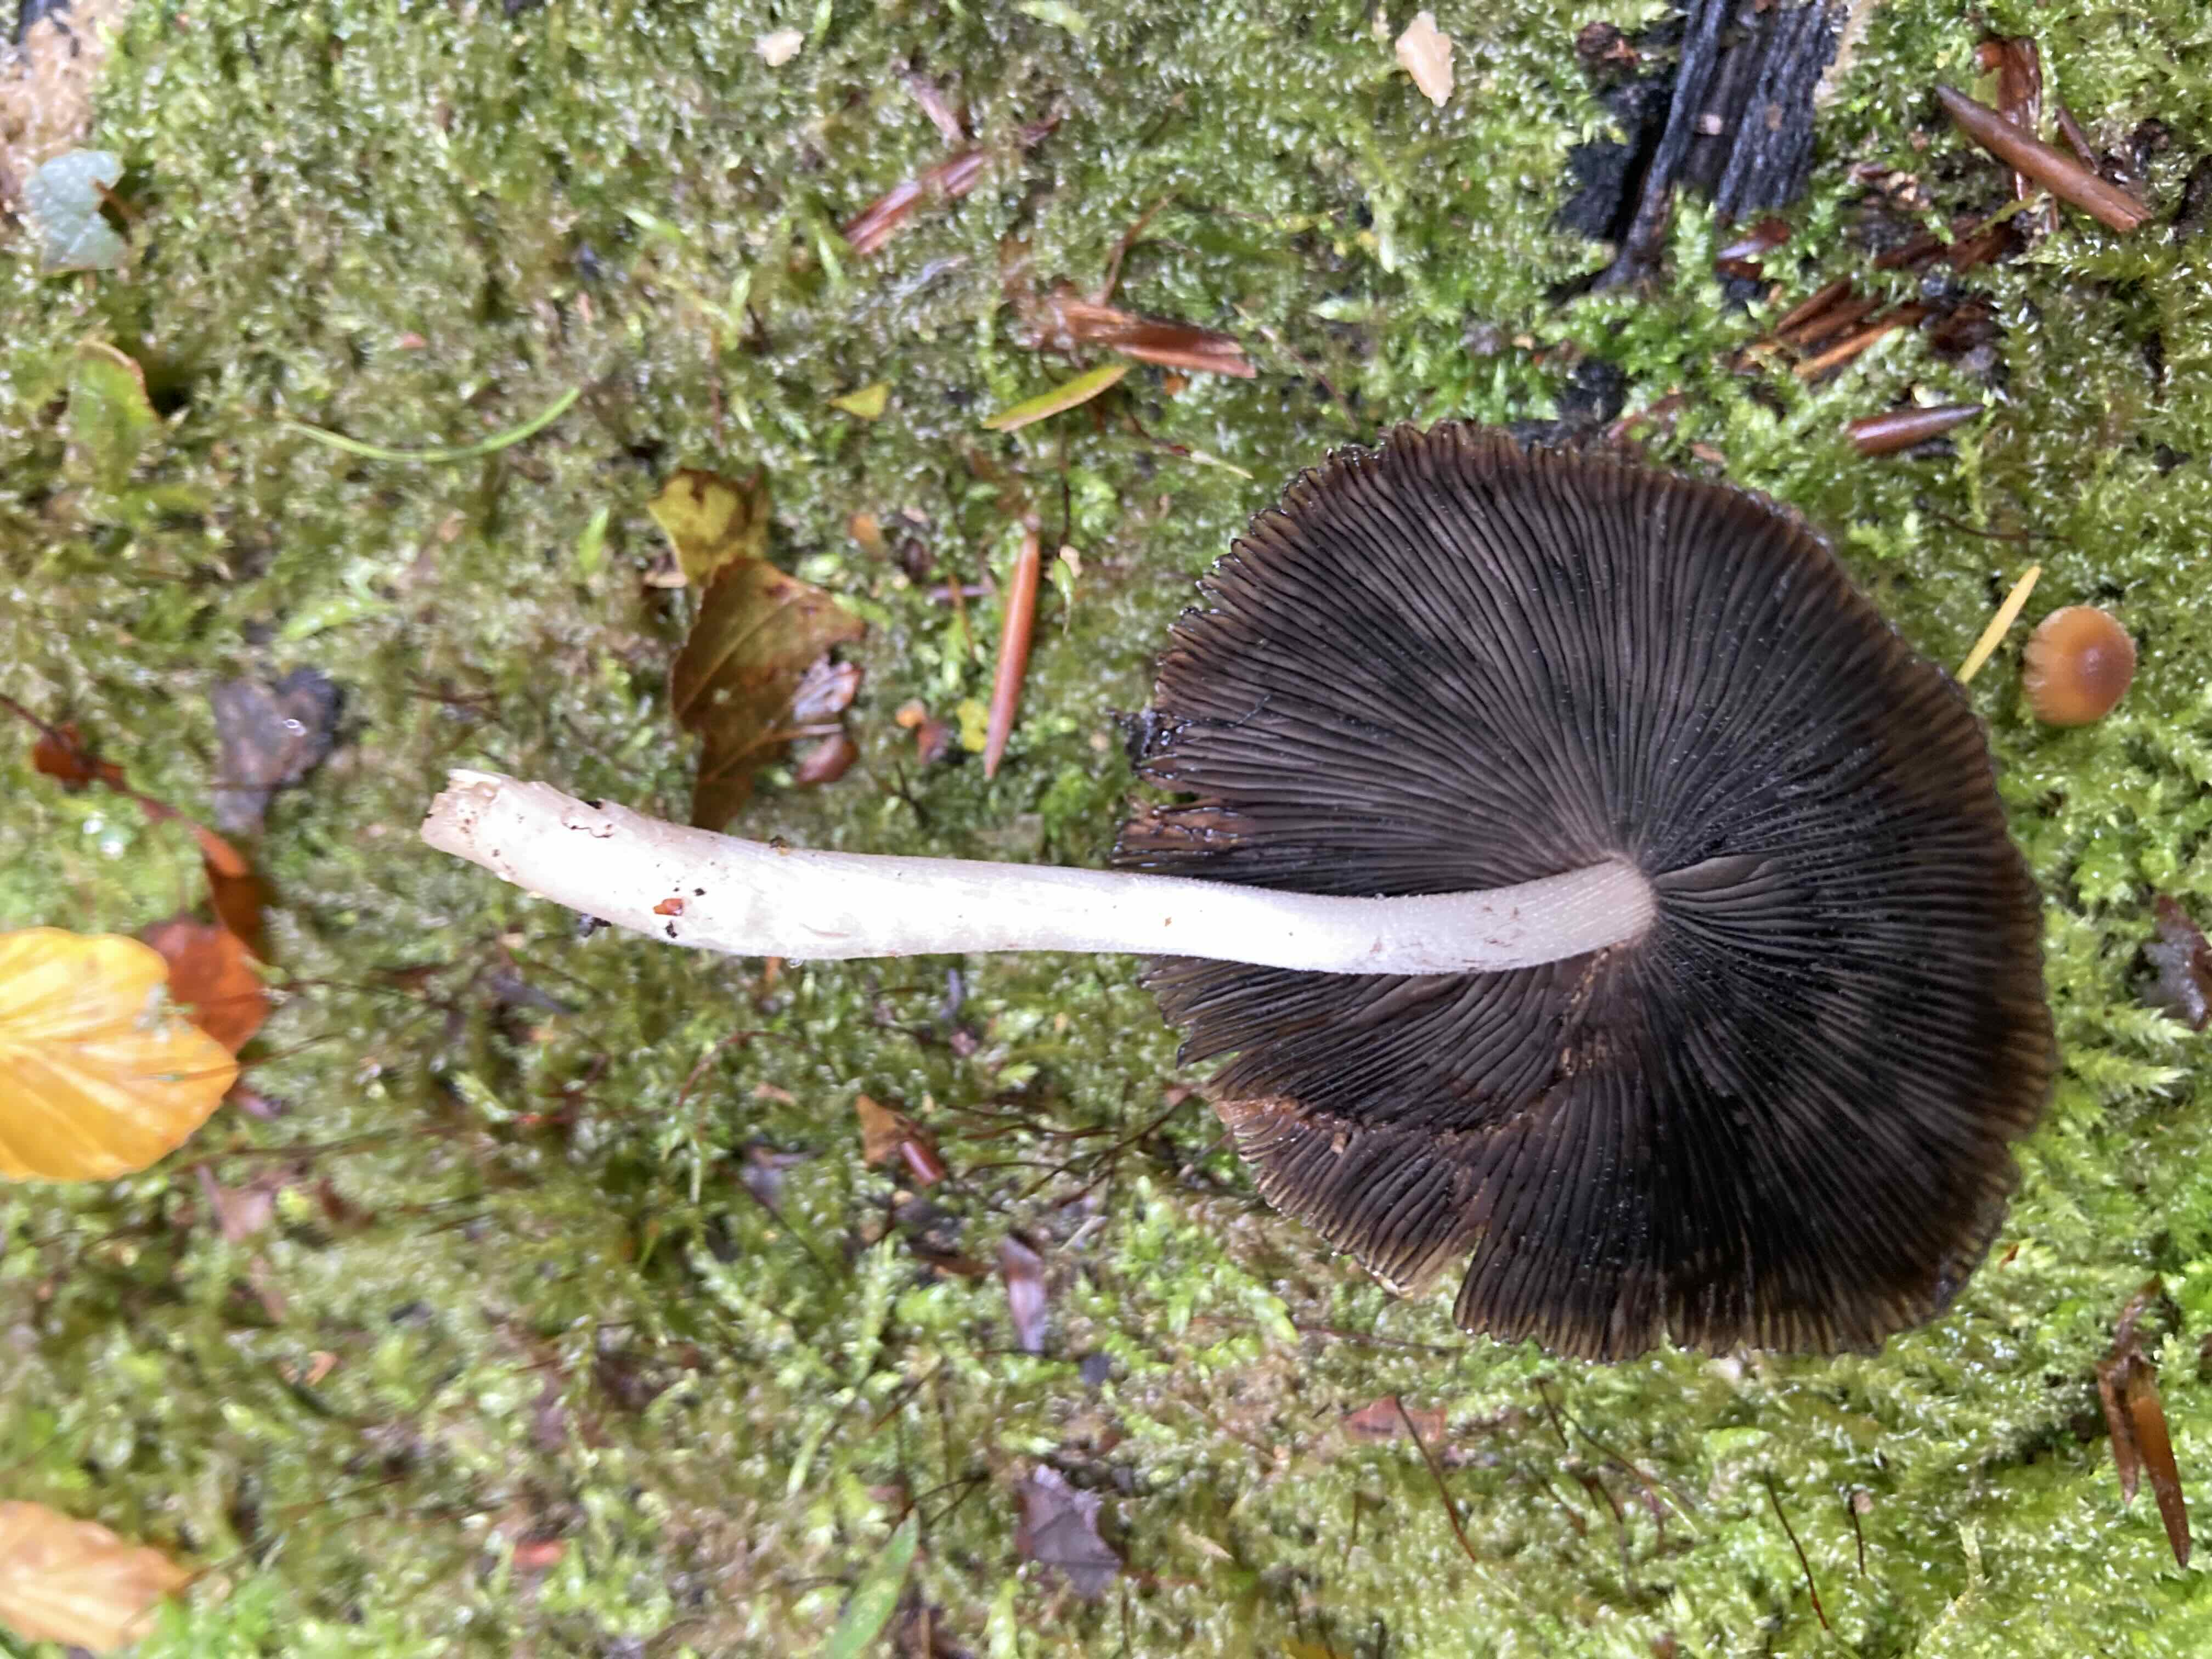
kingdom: Fungi
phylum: Basidiomycota
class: Agaricomycetes
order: Agaricales
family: Psathyrellaceae
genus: Coprinellus
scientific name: Coprinellus
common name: blækhat
